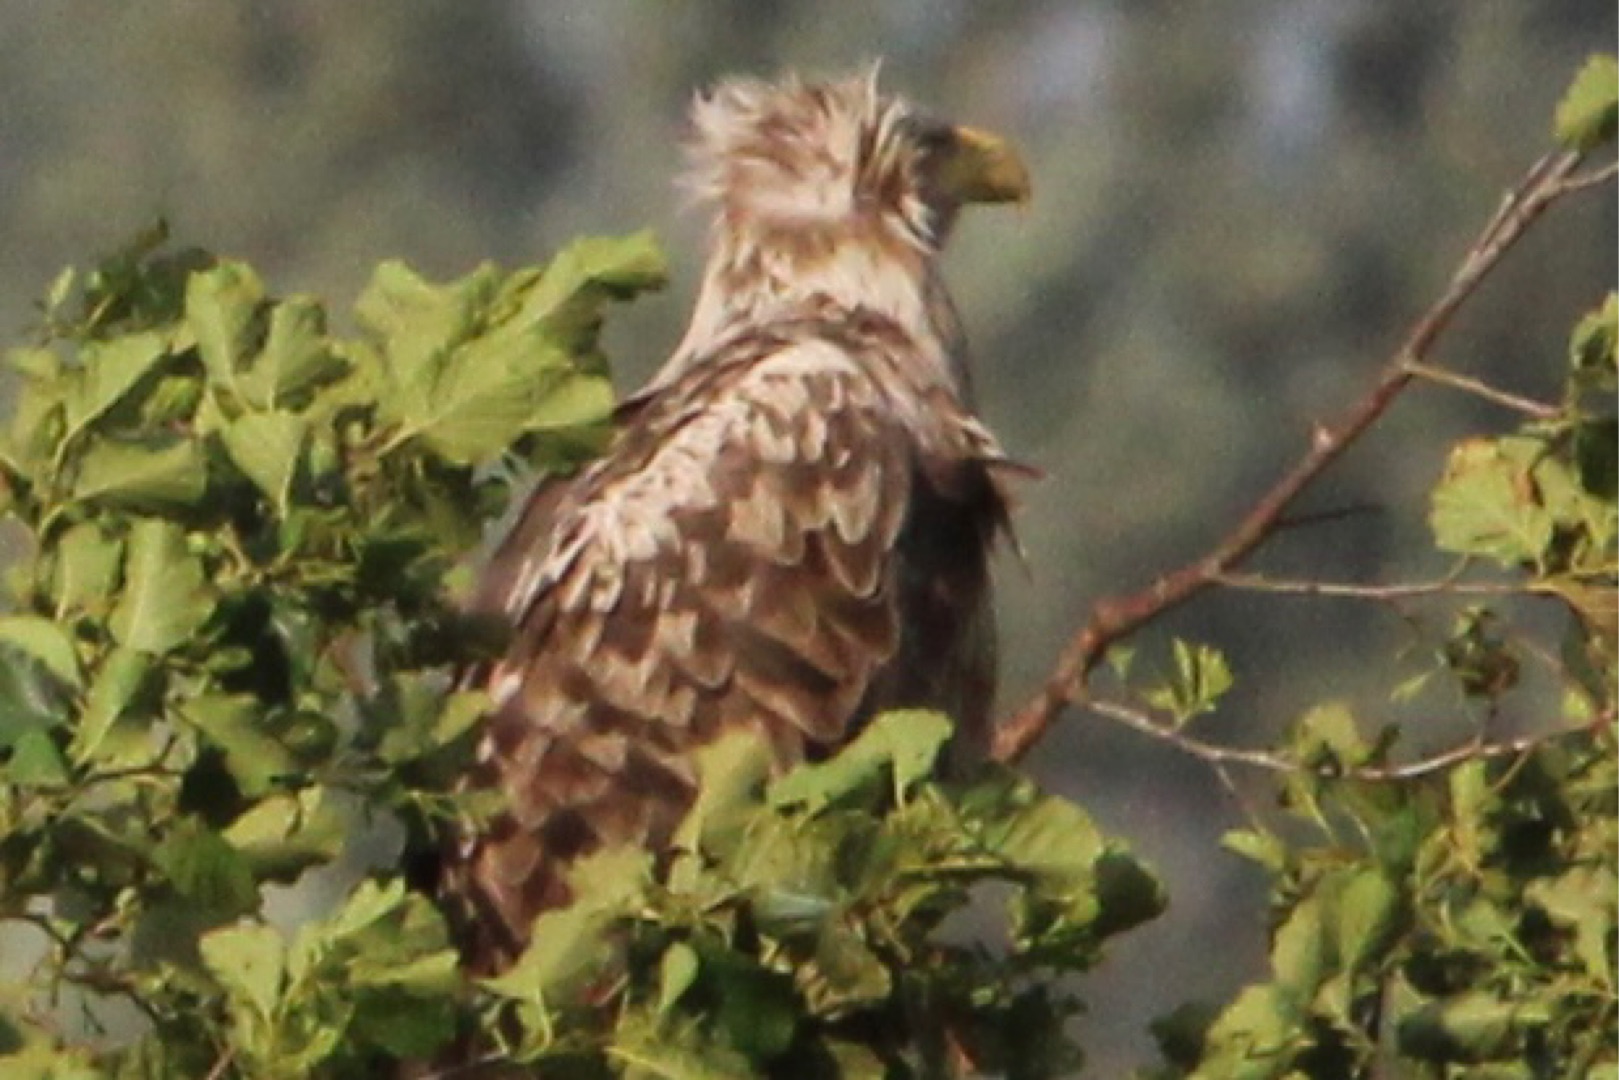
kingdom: Animalia
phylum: Chordata
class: Aves
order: Accipitriformes
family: Accipitridae
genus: Haliaeetus
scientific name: Haliaeetus albicilla
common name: Havørn
